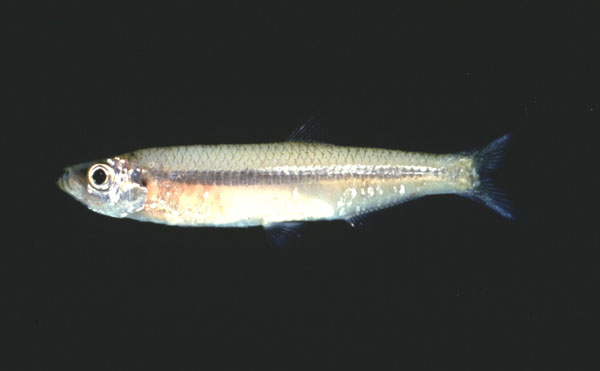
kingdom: Animalia
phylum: Chordata
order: Clupeiformes
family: Clupeidae
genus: Gilchristella
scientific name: Gilchristella aestuaria
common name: Estuarine round-herring
